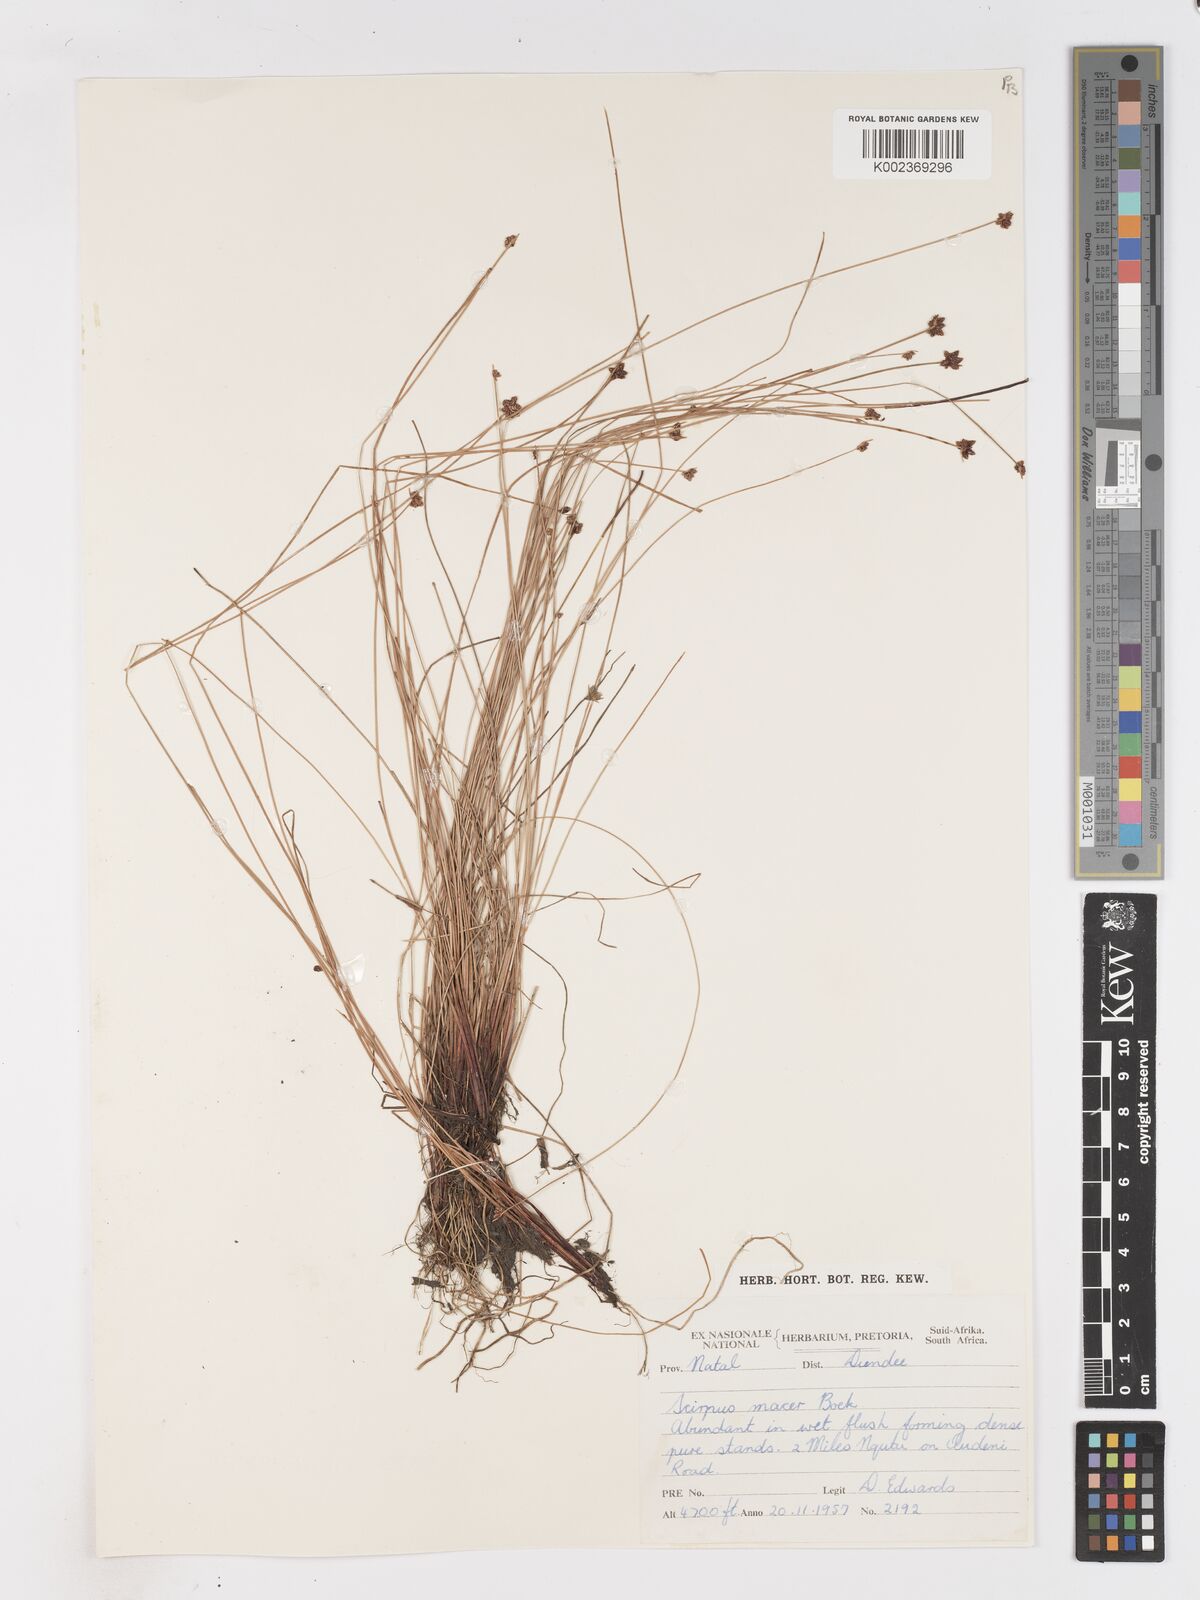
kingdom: Plantae
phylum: Tracheophyta
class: Liliopsida
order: Poales
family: Cyperaceae
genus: Isolepis
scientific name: Isolepis costata
